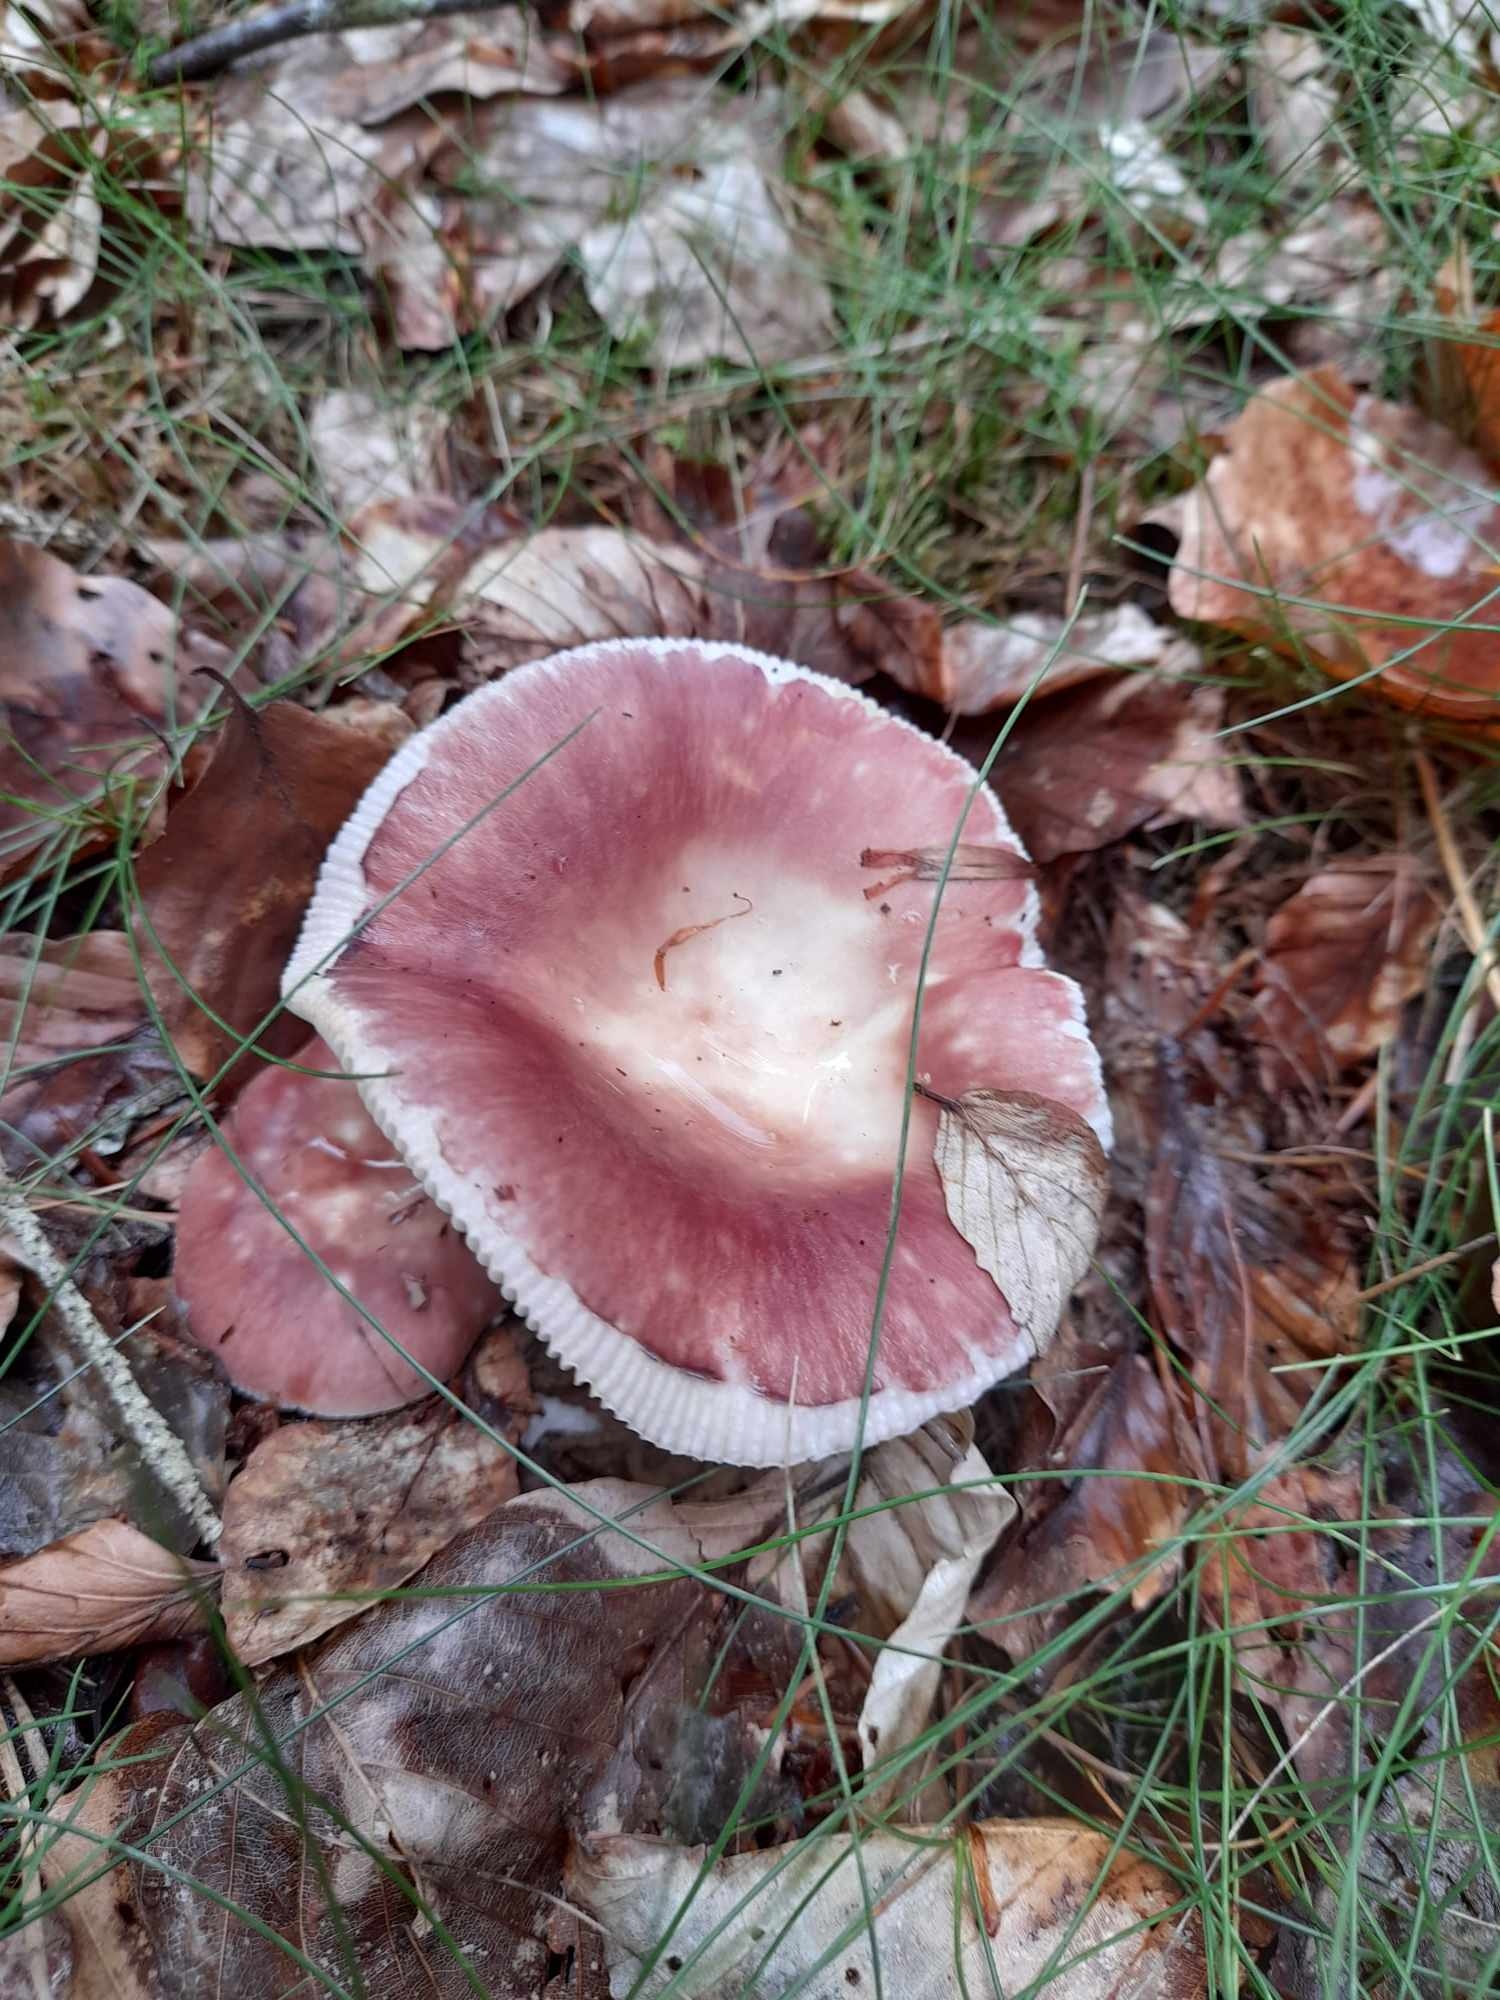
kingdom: Fungi
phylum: Basidiomycota
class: Agaricomycetes
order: Russulales
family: Russulaceae
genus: Russula
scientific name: Russula vesca
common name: spiselig skørhat
